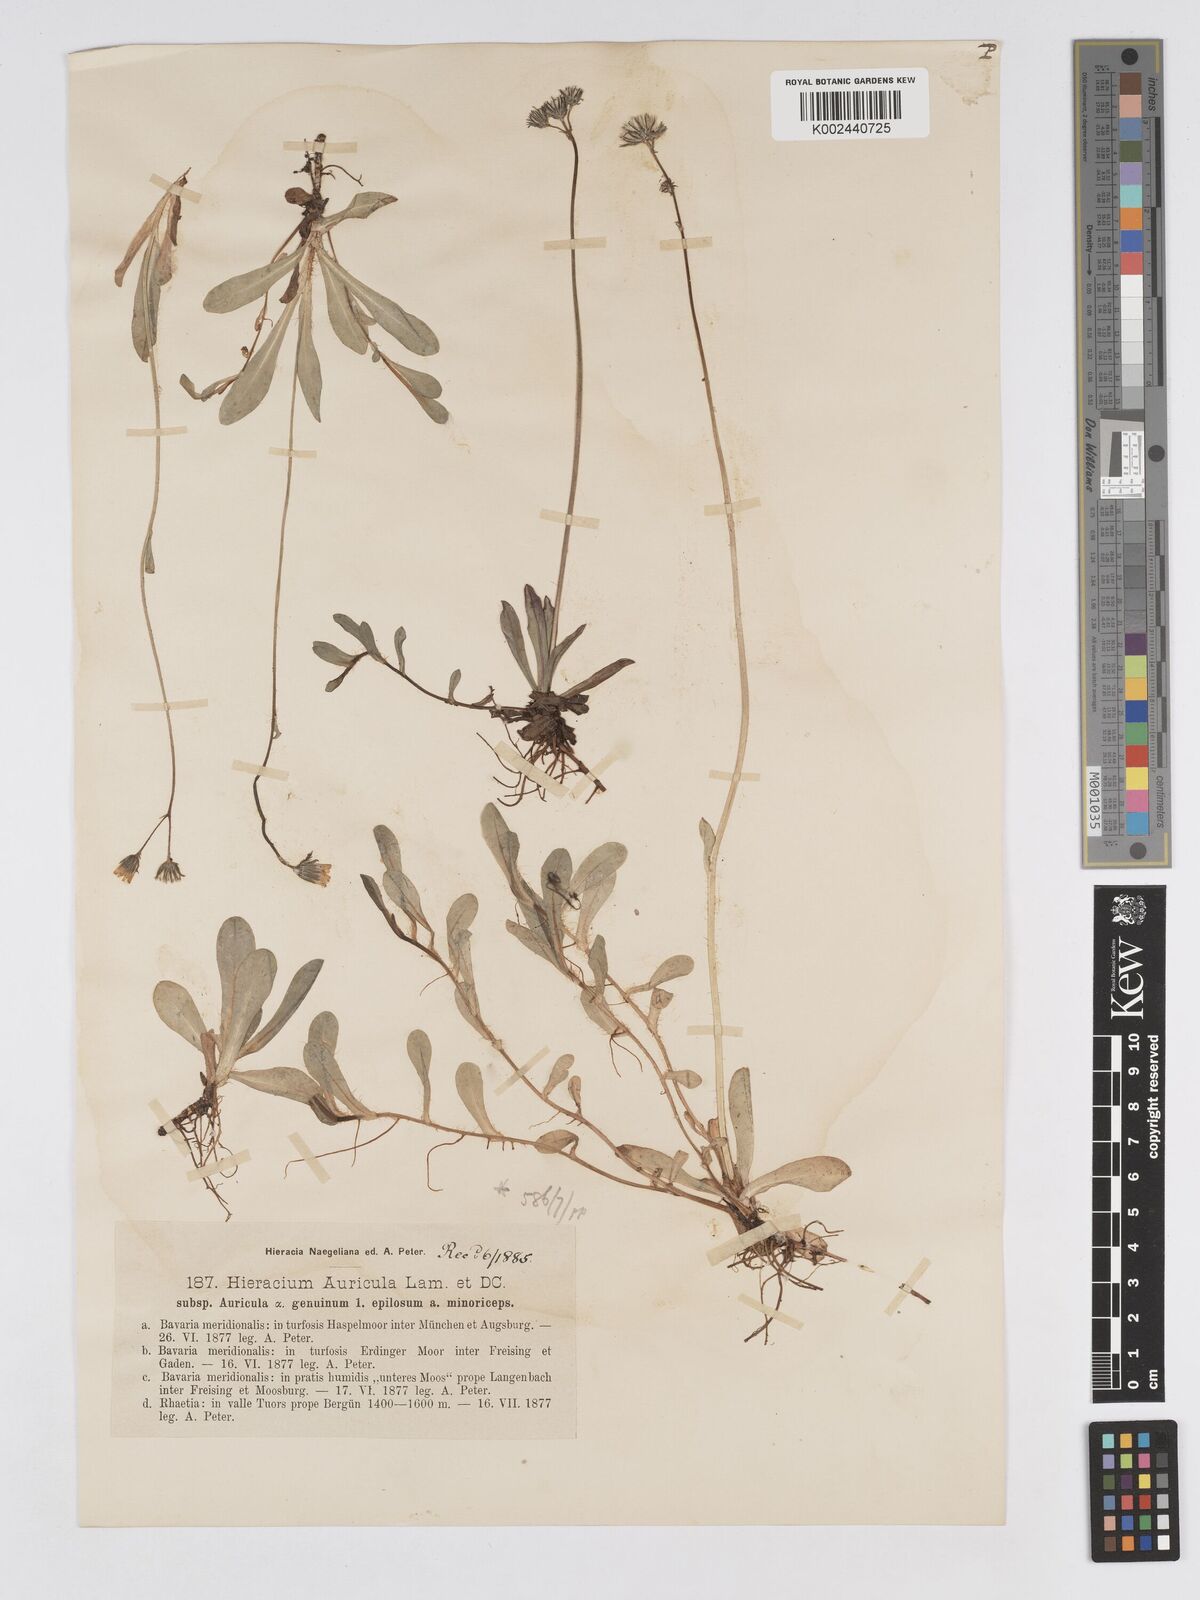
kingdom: Plantae
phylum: Tracheophyta
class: Magnoliopsida
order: Asterales
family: Asteraceae
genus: Pilosella
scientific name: Pilosella floribunda
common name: Glaucous hawkweed
